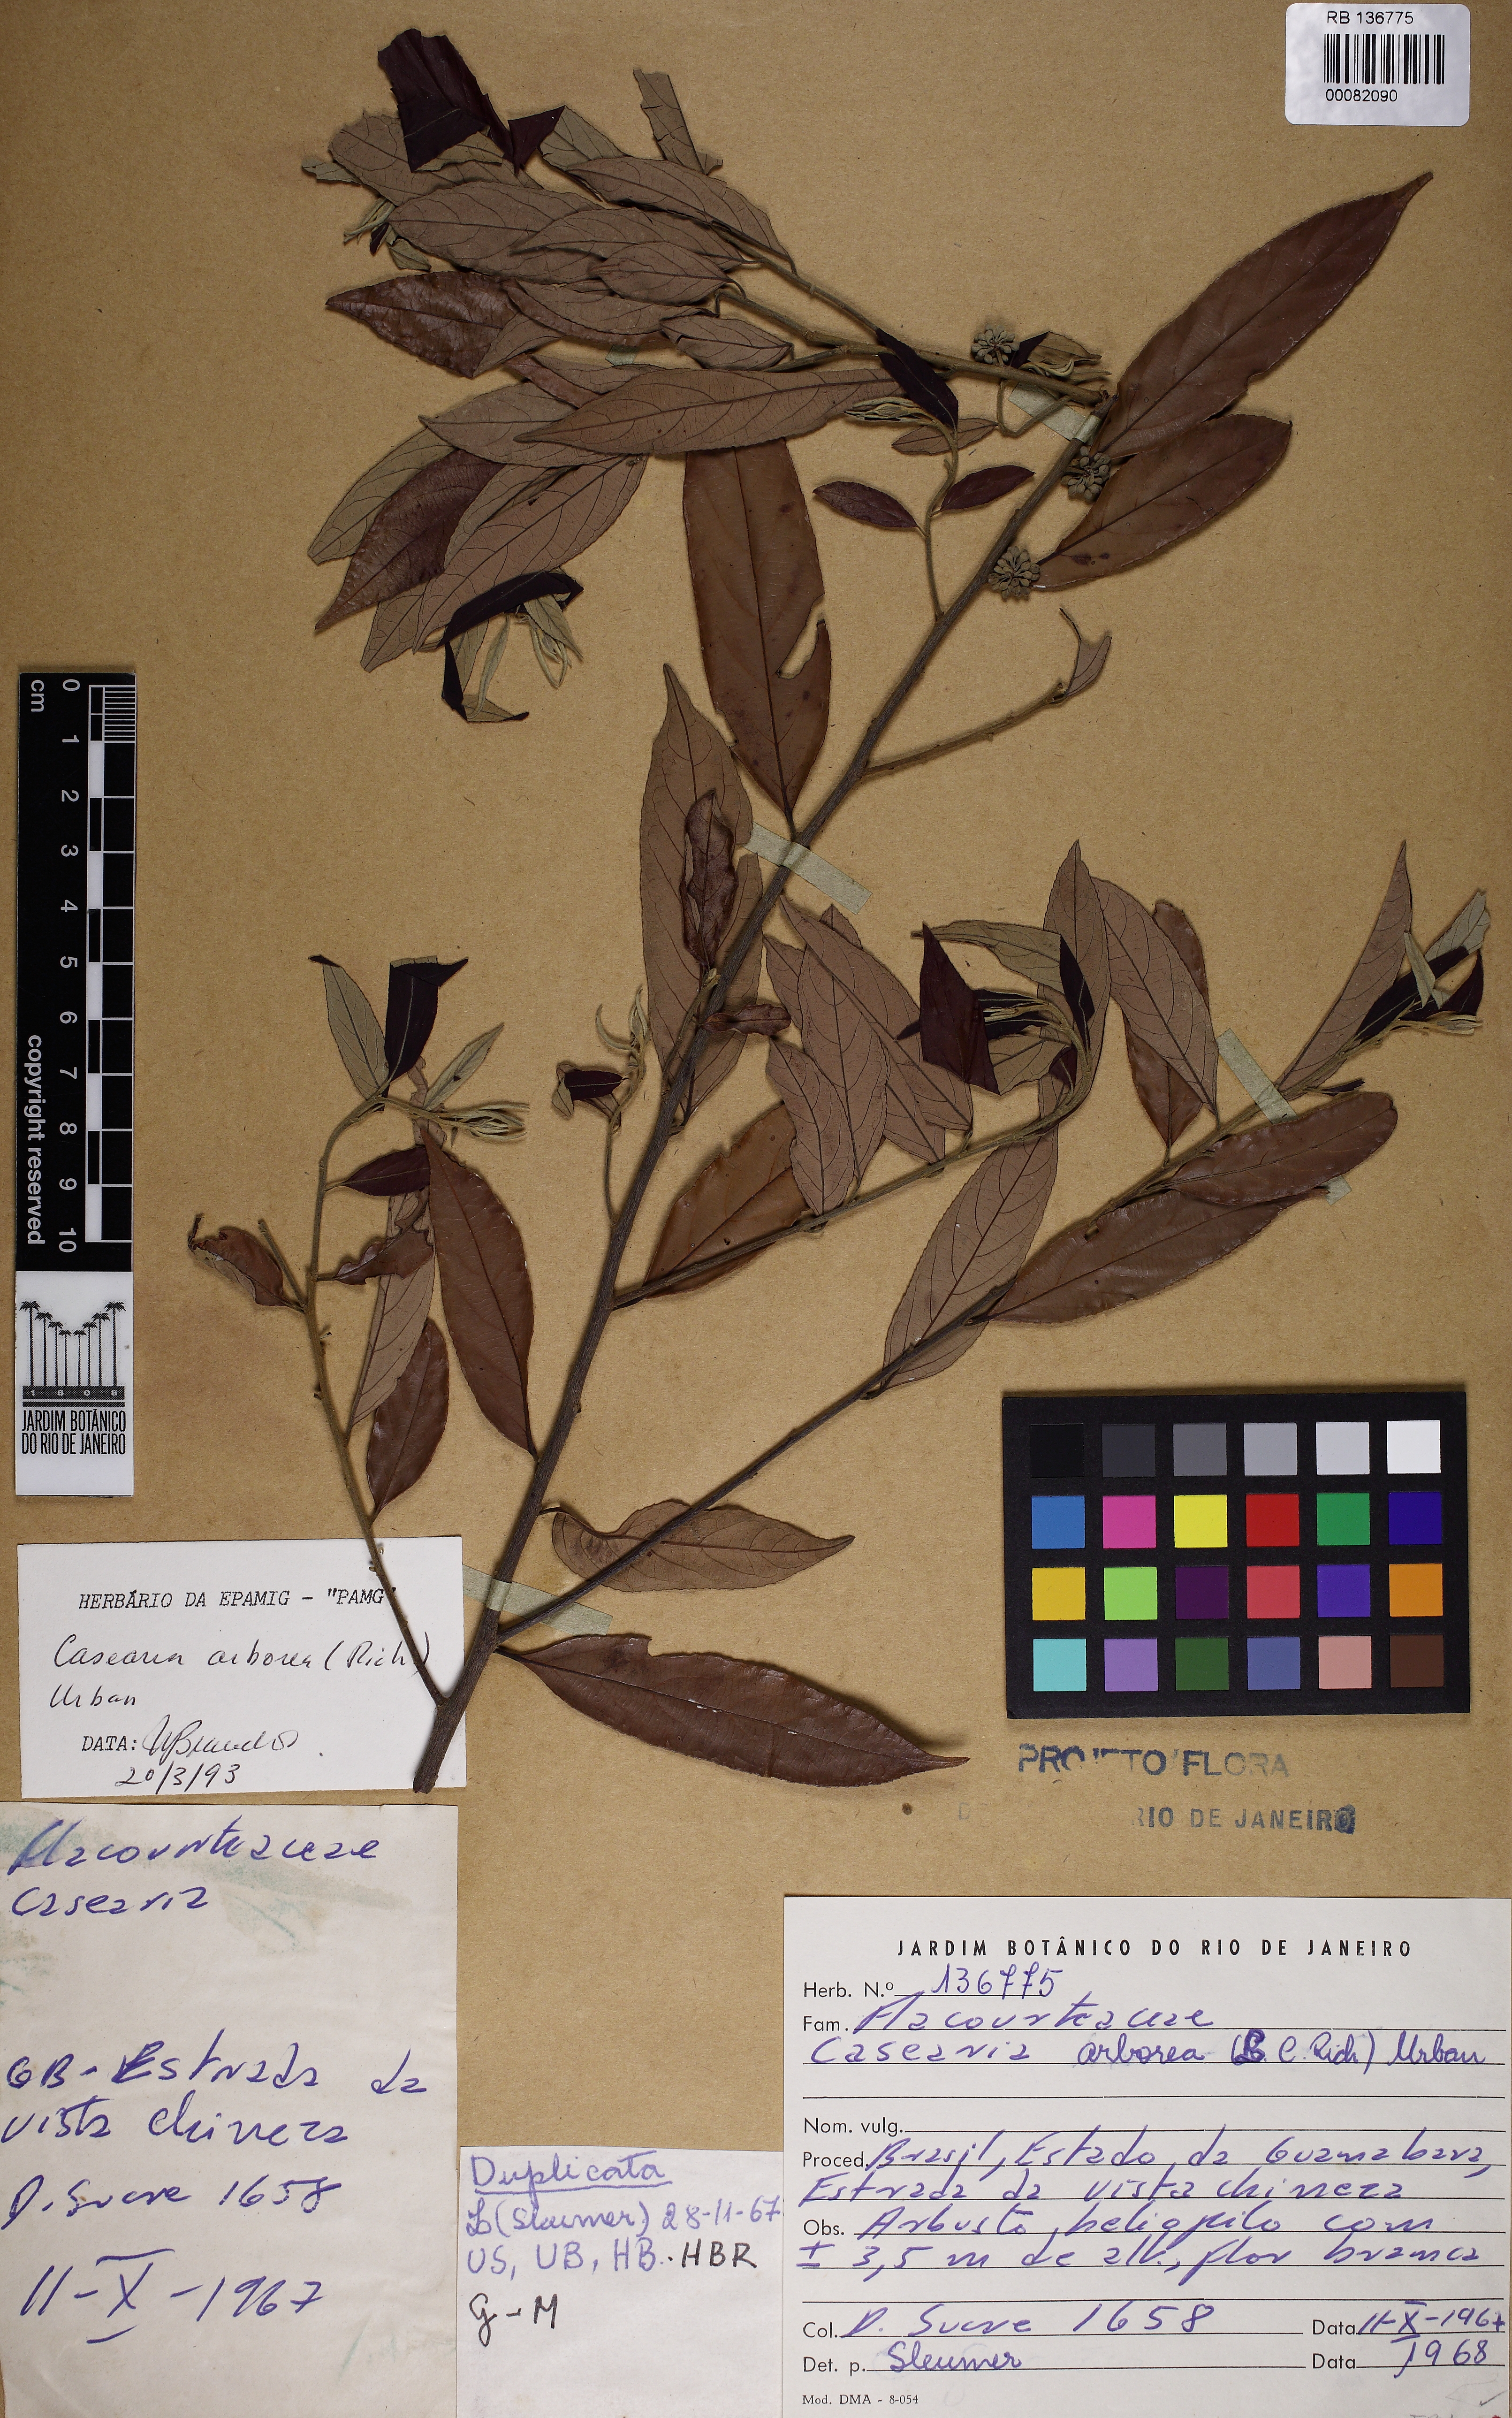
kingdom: Plantae
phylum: Tracheophyta
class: Magnoliopsida
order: Malpighiales
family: Salicaceae
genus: Casearia
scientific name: Casearia
